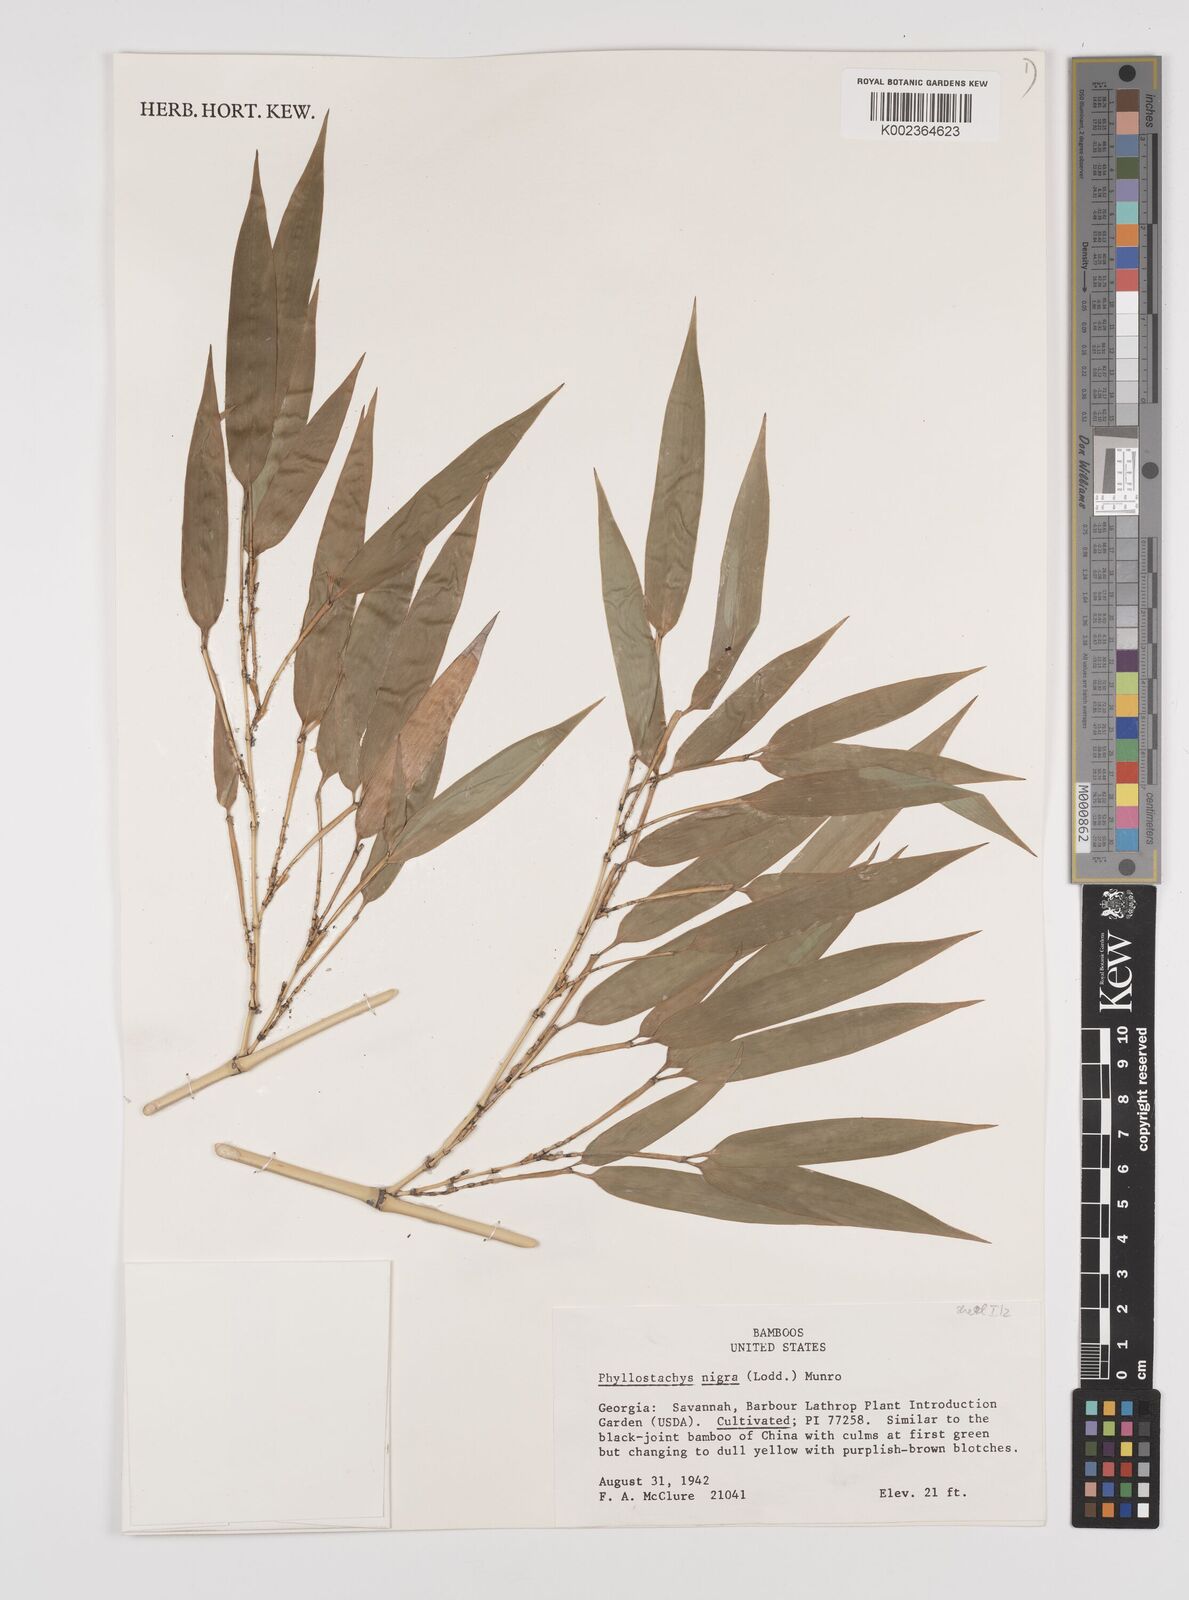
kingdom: Plantae
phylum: Tracheophyta
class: Liliopsida
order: Poales
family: Poaceae
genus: Phyllostachys
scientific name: Phyllostachys nigra
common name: Black bamboo
